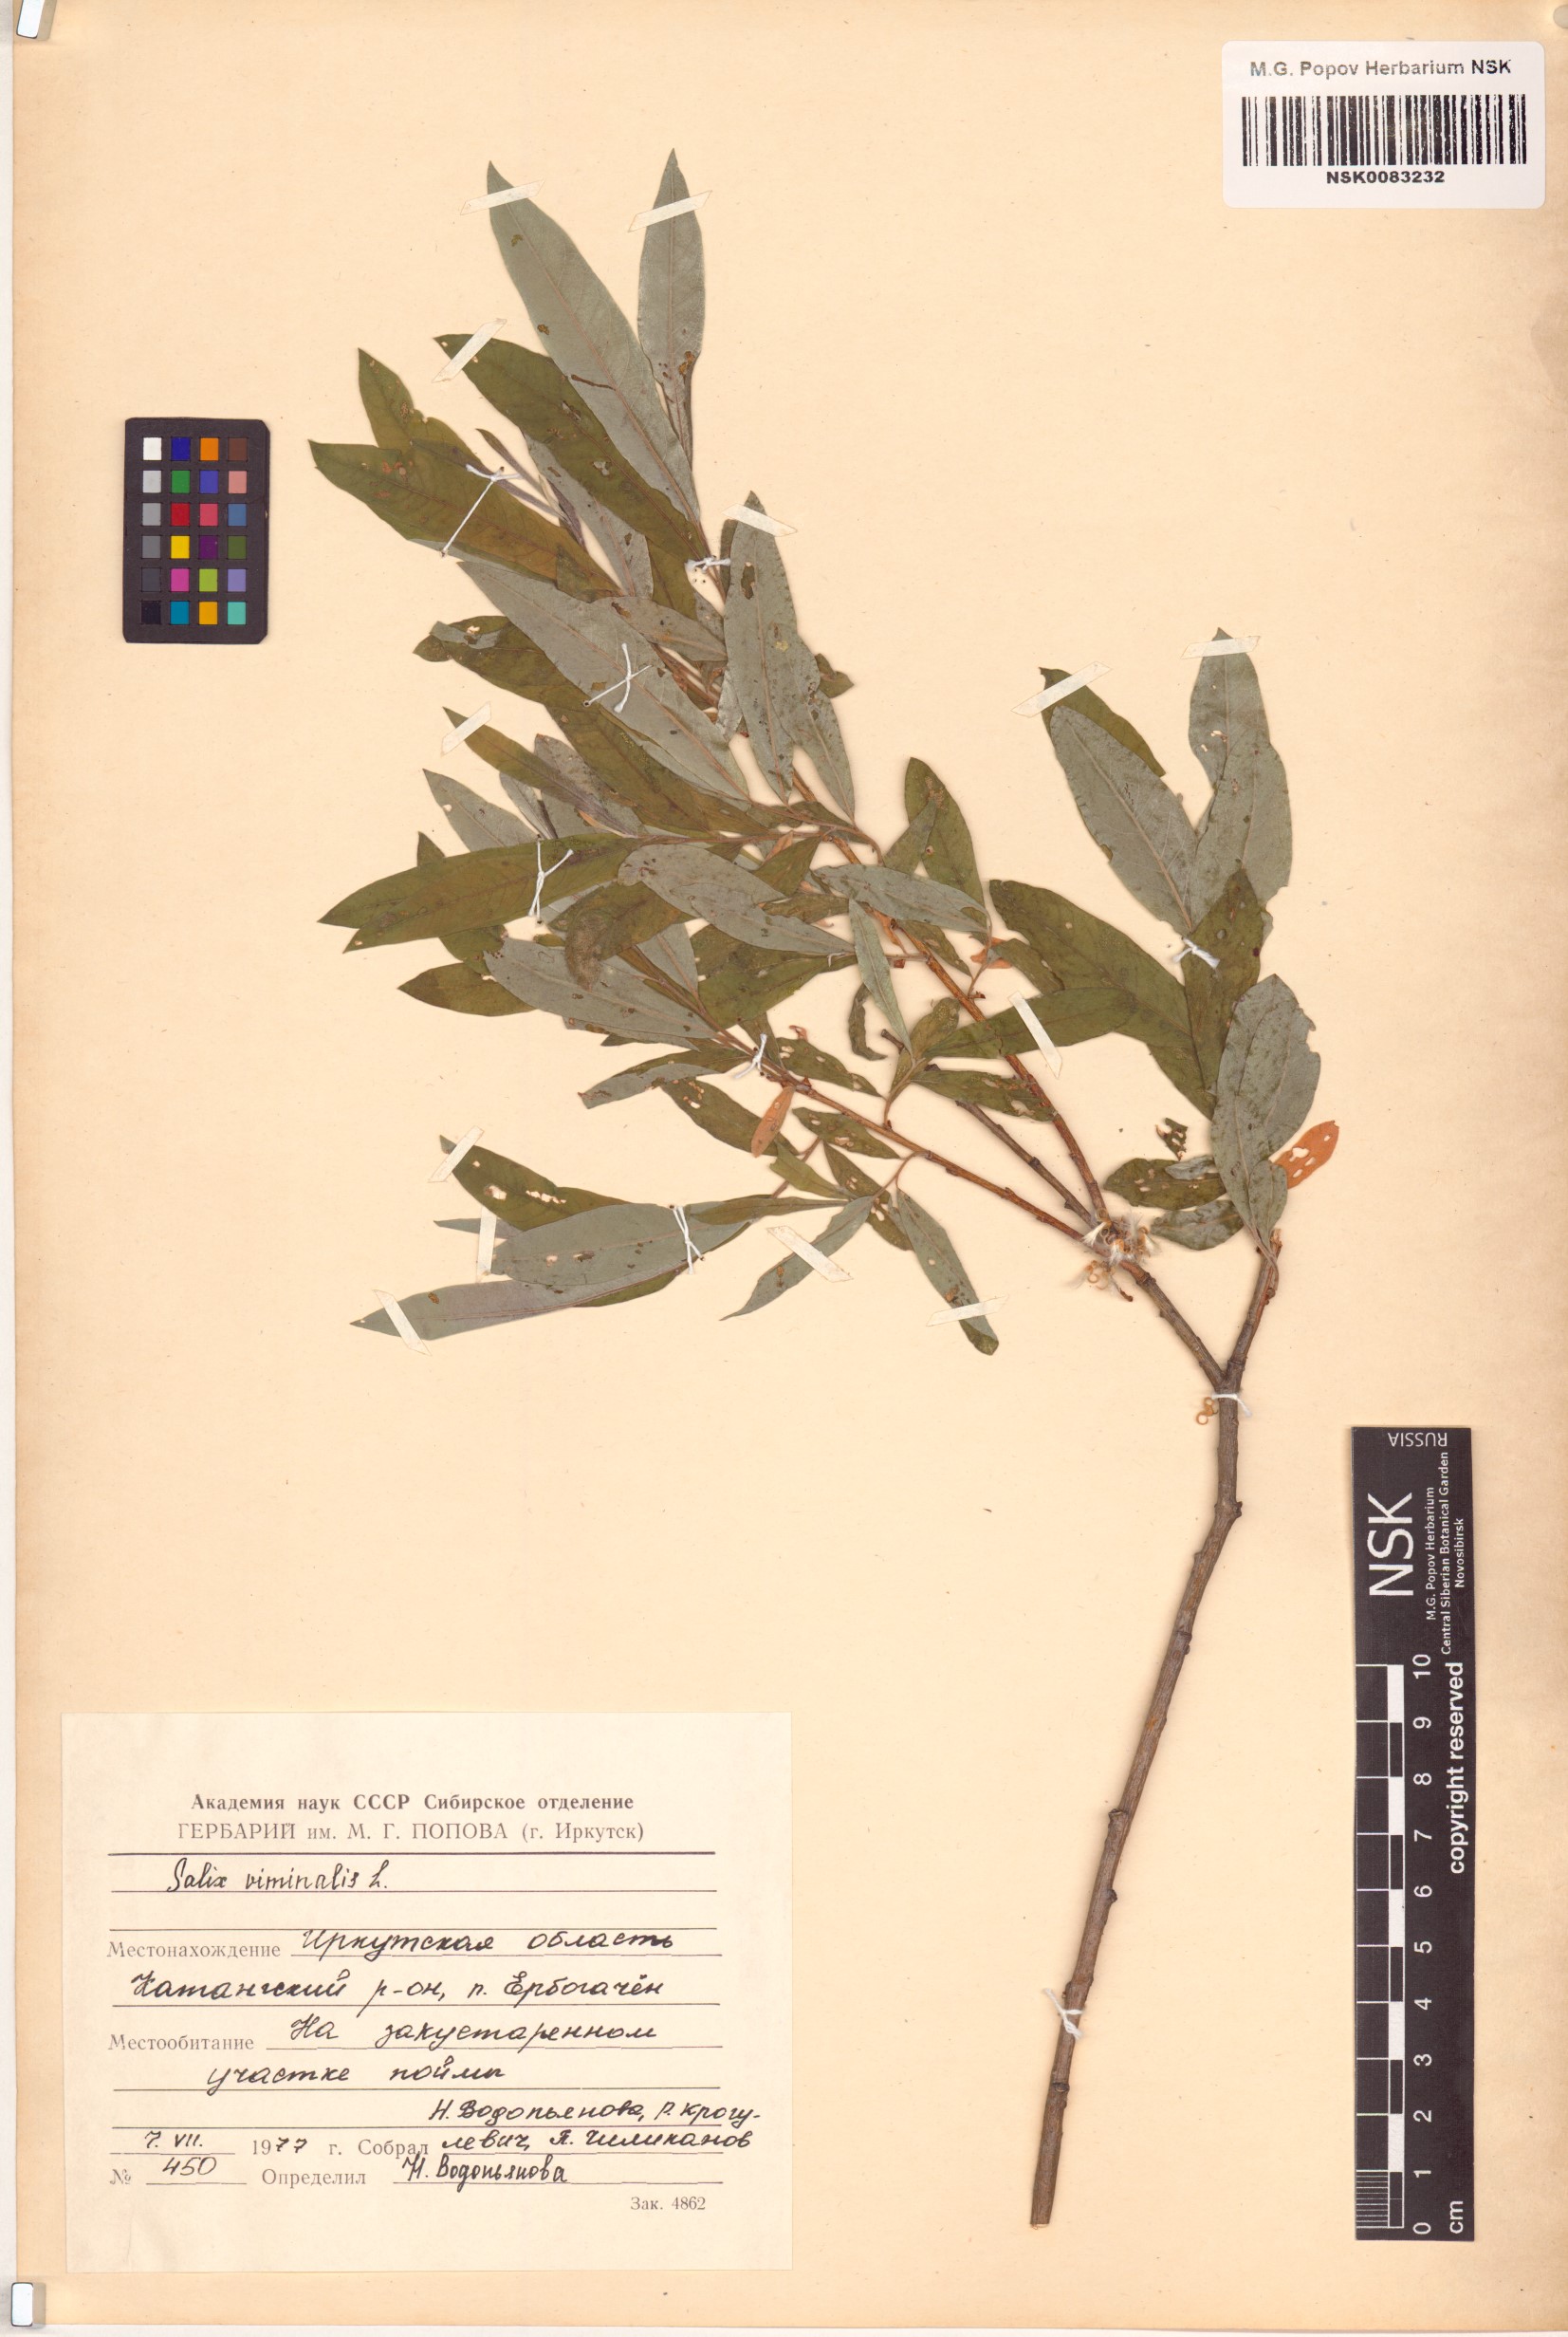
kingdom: Plantae
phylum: Tracheophyta
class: Magnoliopsida
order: Malpighiales
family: Salicaceae
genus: Salix
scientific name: Salix viminalis
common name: Osier
